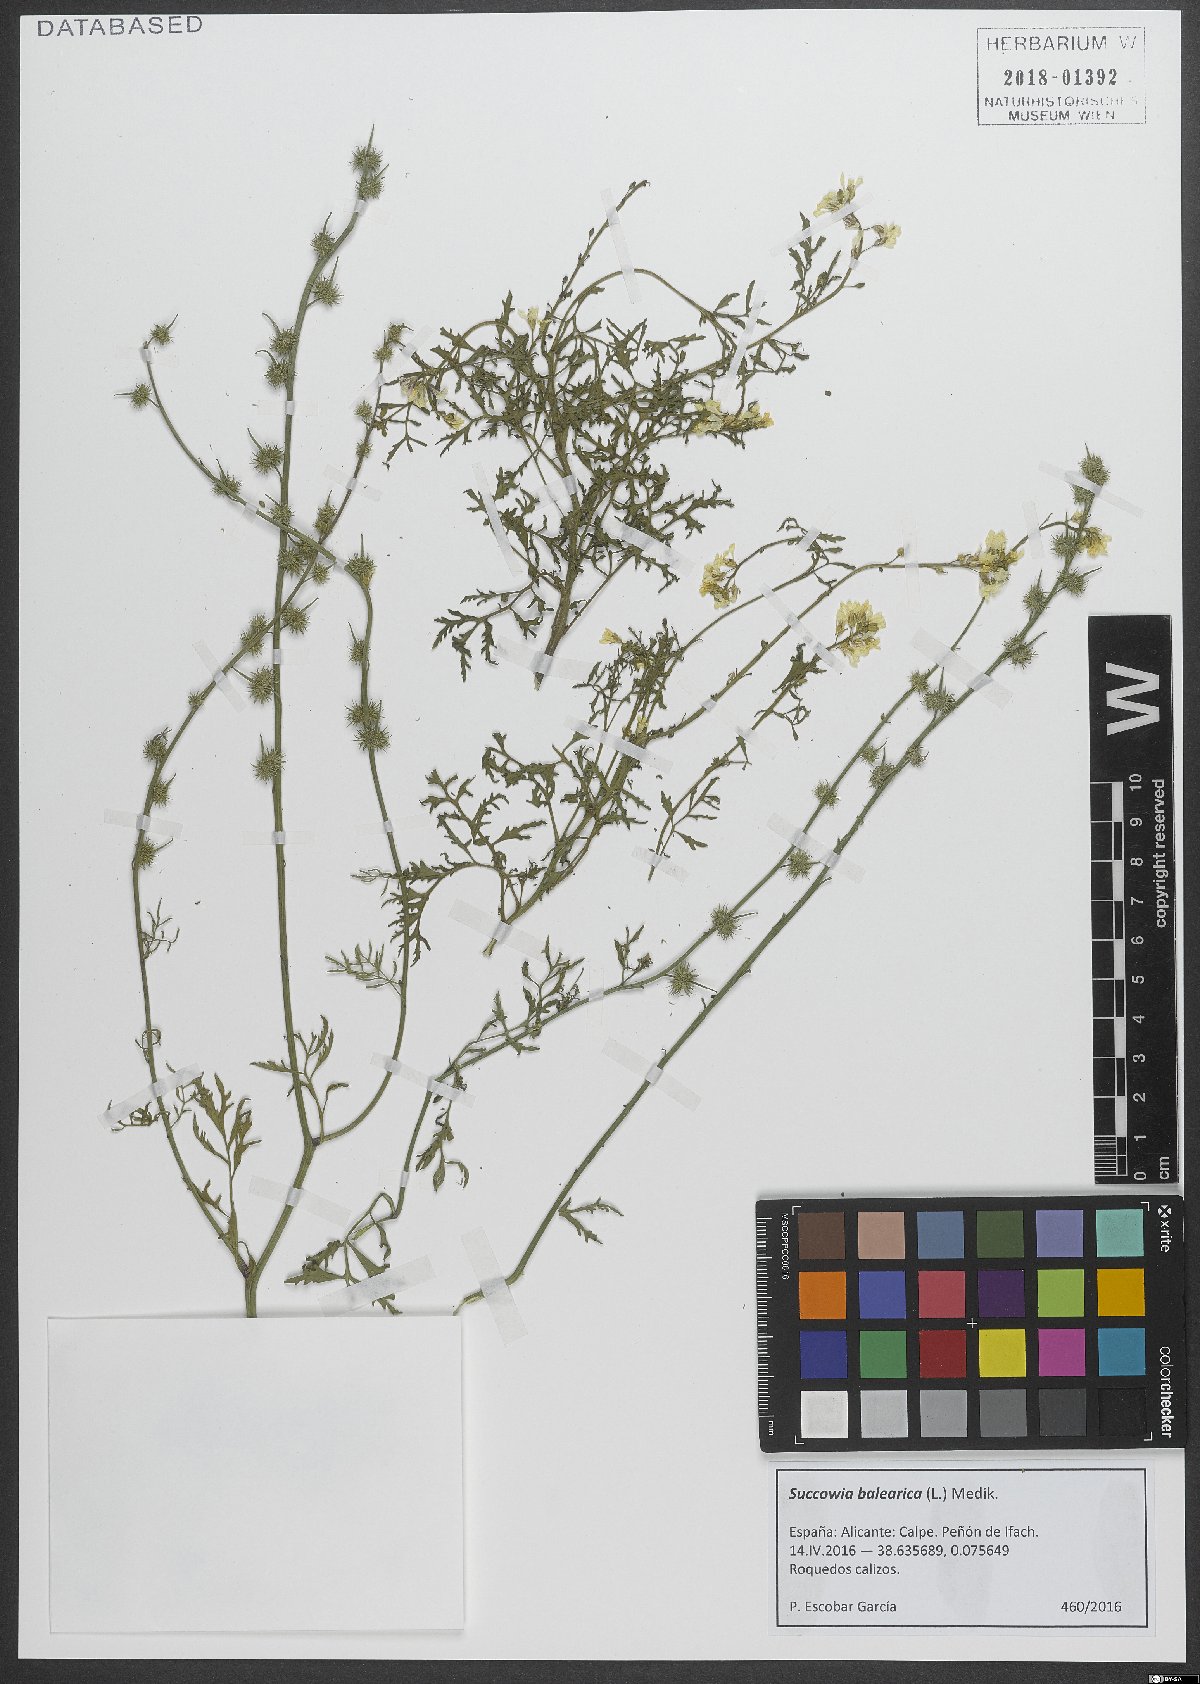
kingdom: Plantae
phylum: Tracheophyta
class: Magnoliopsida
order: Brassicales
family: Brassicaceae
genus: Succowia
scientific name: Succowia balearica
